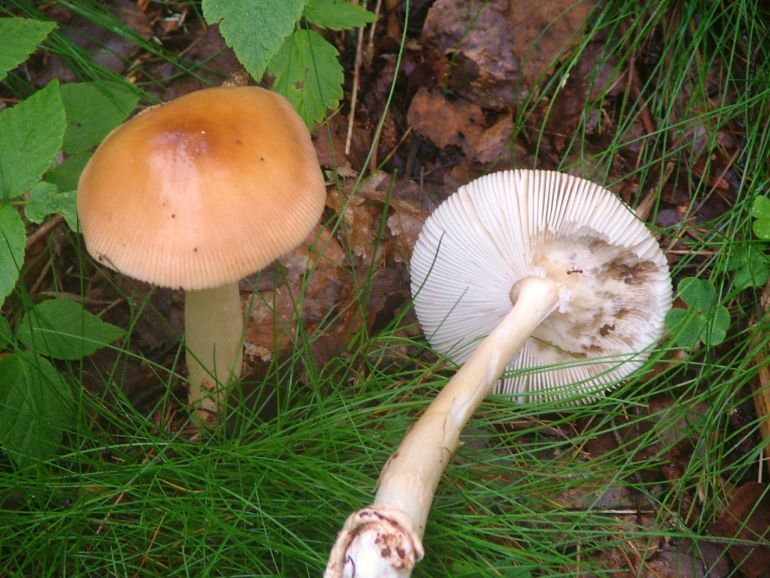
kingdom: Fungi
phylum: Basidiomycota
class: Agaricomycetes
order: Agaricales
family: Amanitaceae
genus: Amanita
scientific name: Amanita fulva
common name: brun kam-fluesvamp
